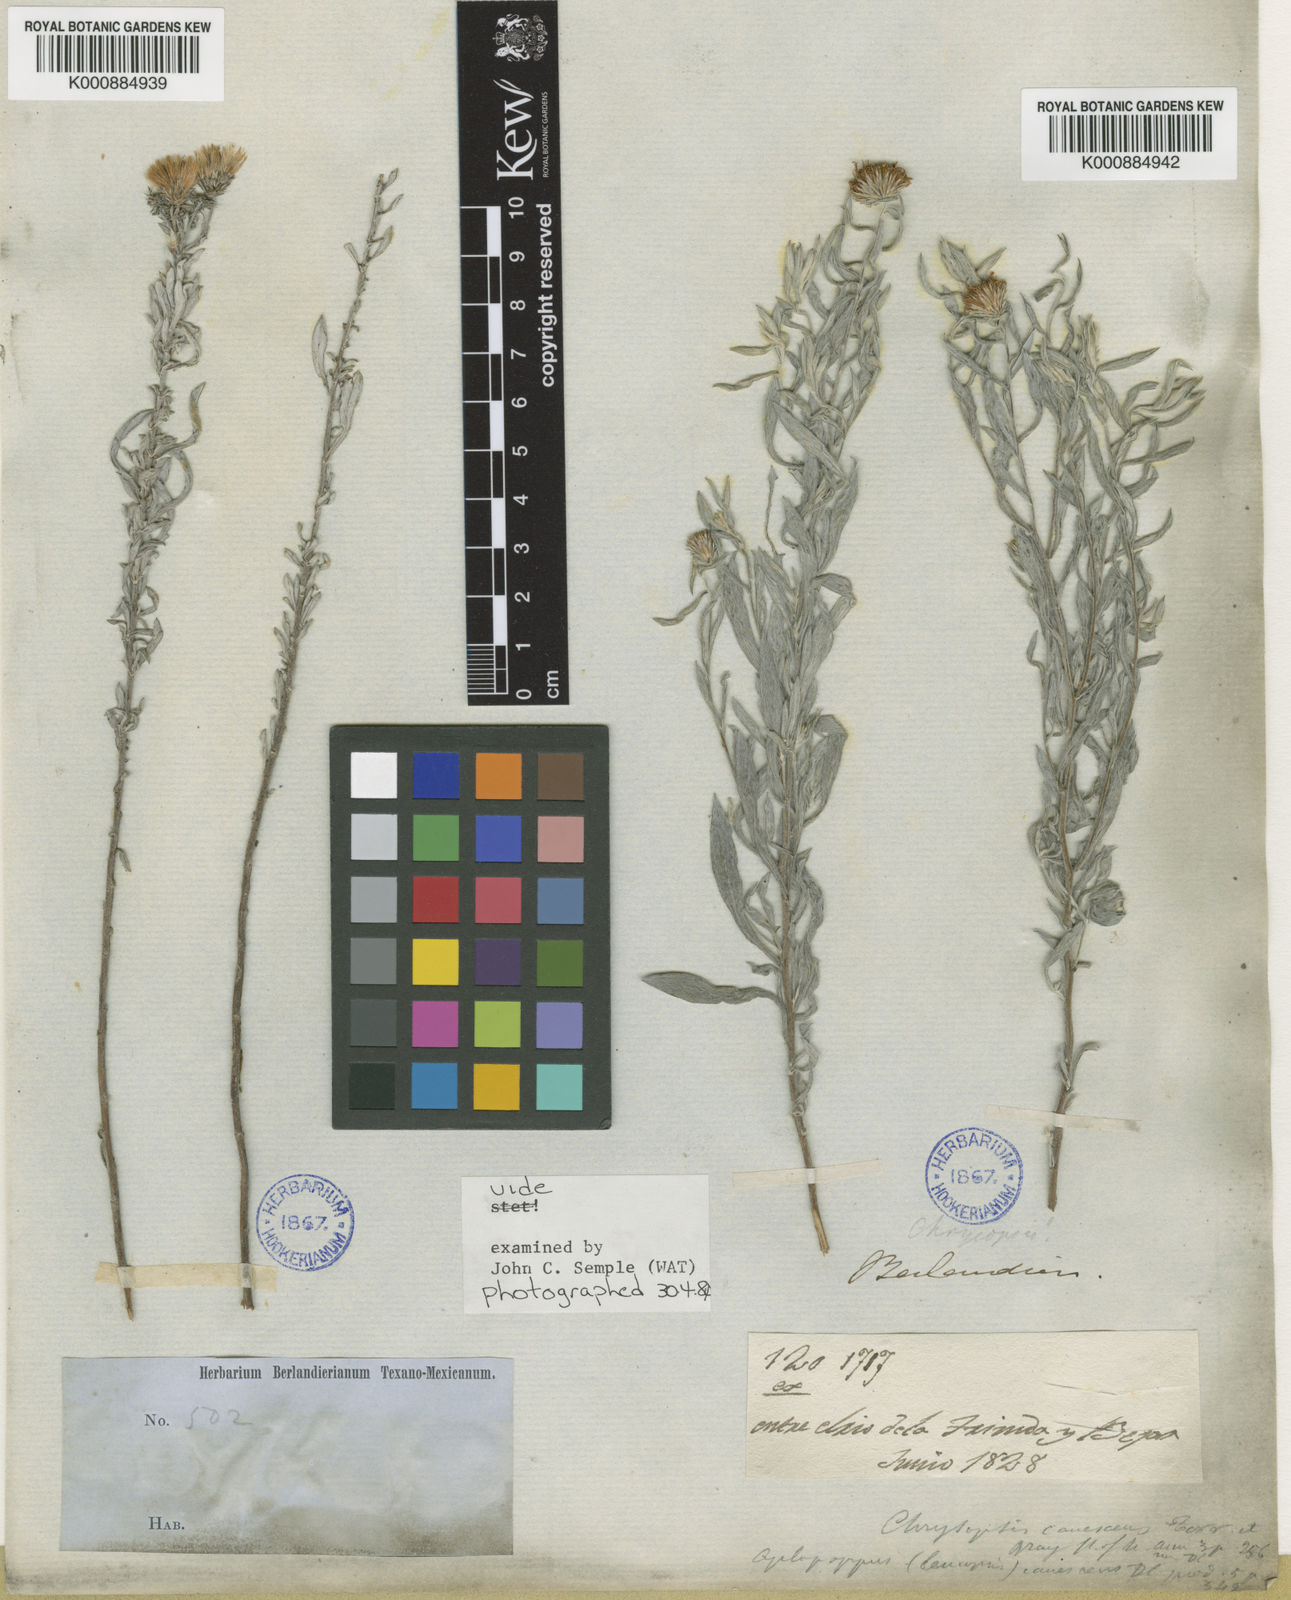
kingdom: Plantae
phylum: Tracheophyta
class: Magnoliopsida
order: Asterales
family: Asteraceae
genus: Heterotheca
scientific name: Heterotheca villosa
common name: Hairy false goldenaster
